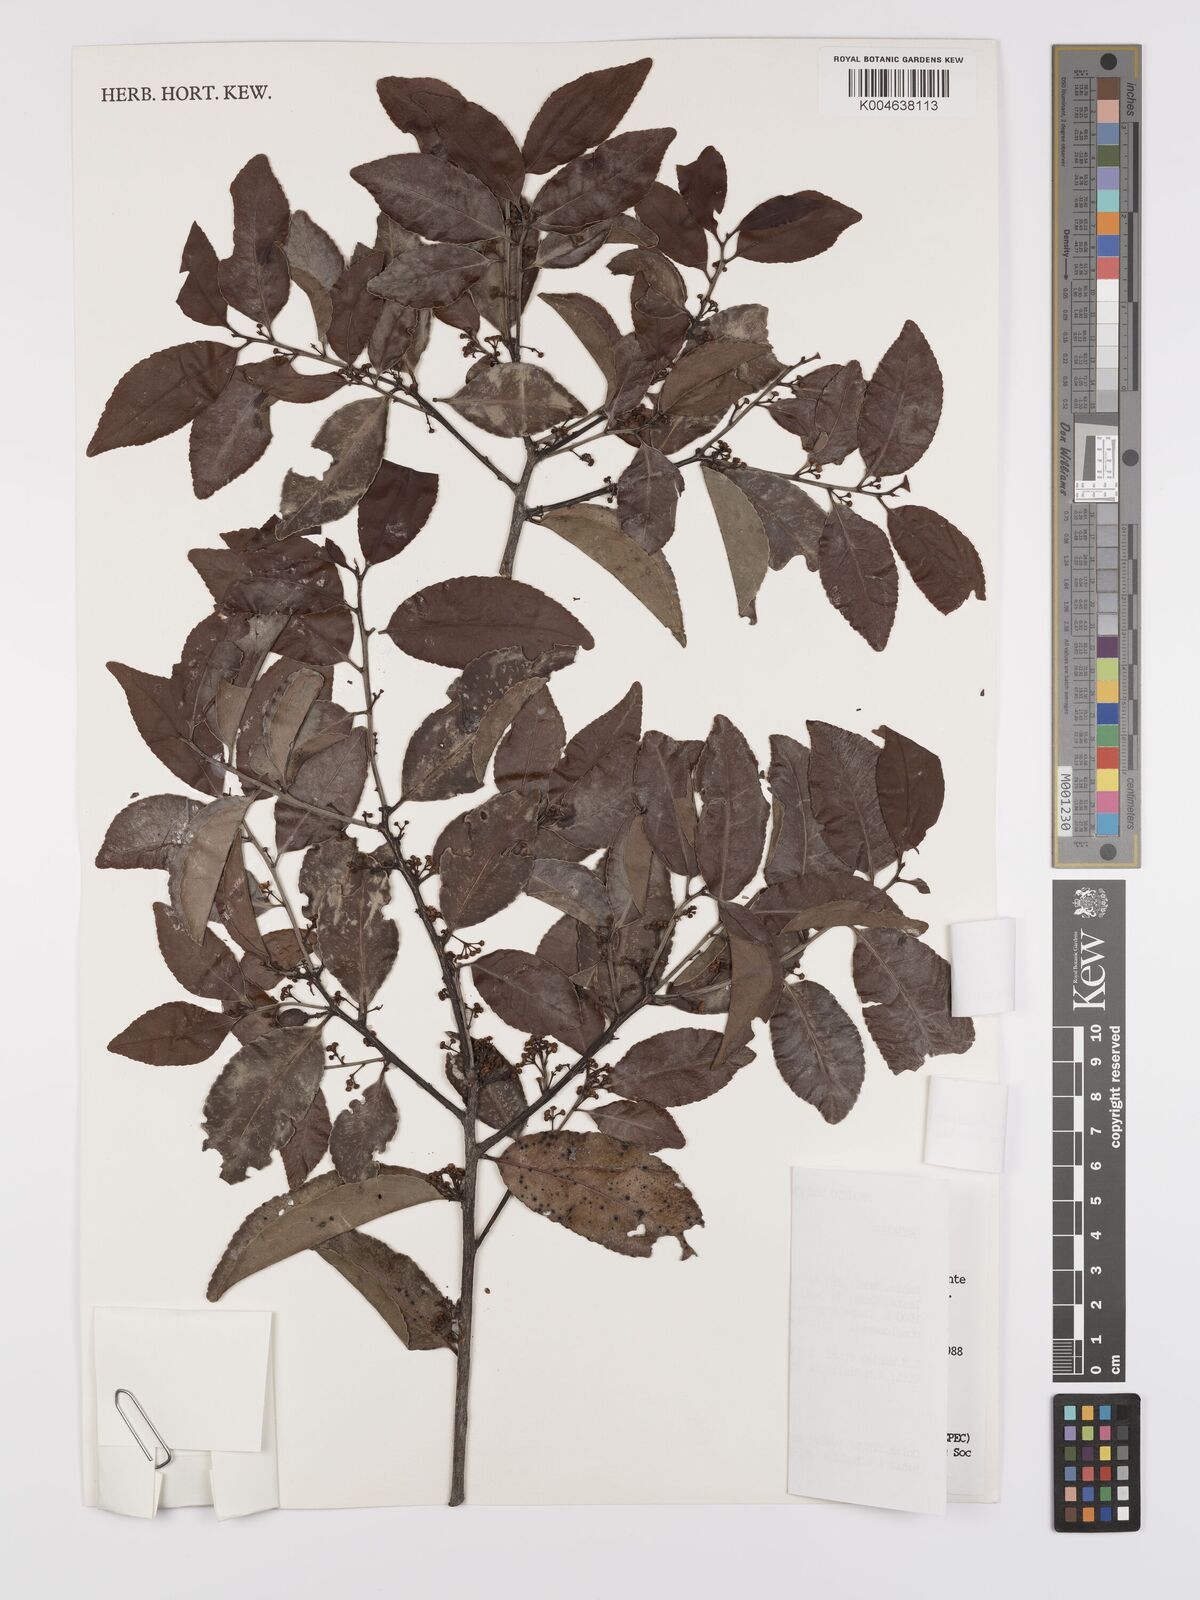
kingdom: Plantae
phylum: Tracheophyta
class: Magnoliopsida
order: Celastrales
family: Celastraceae
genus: Monteverdia
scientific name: Monteverdia gonoclada
